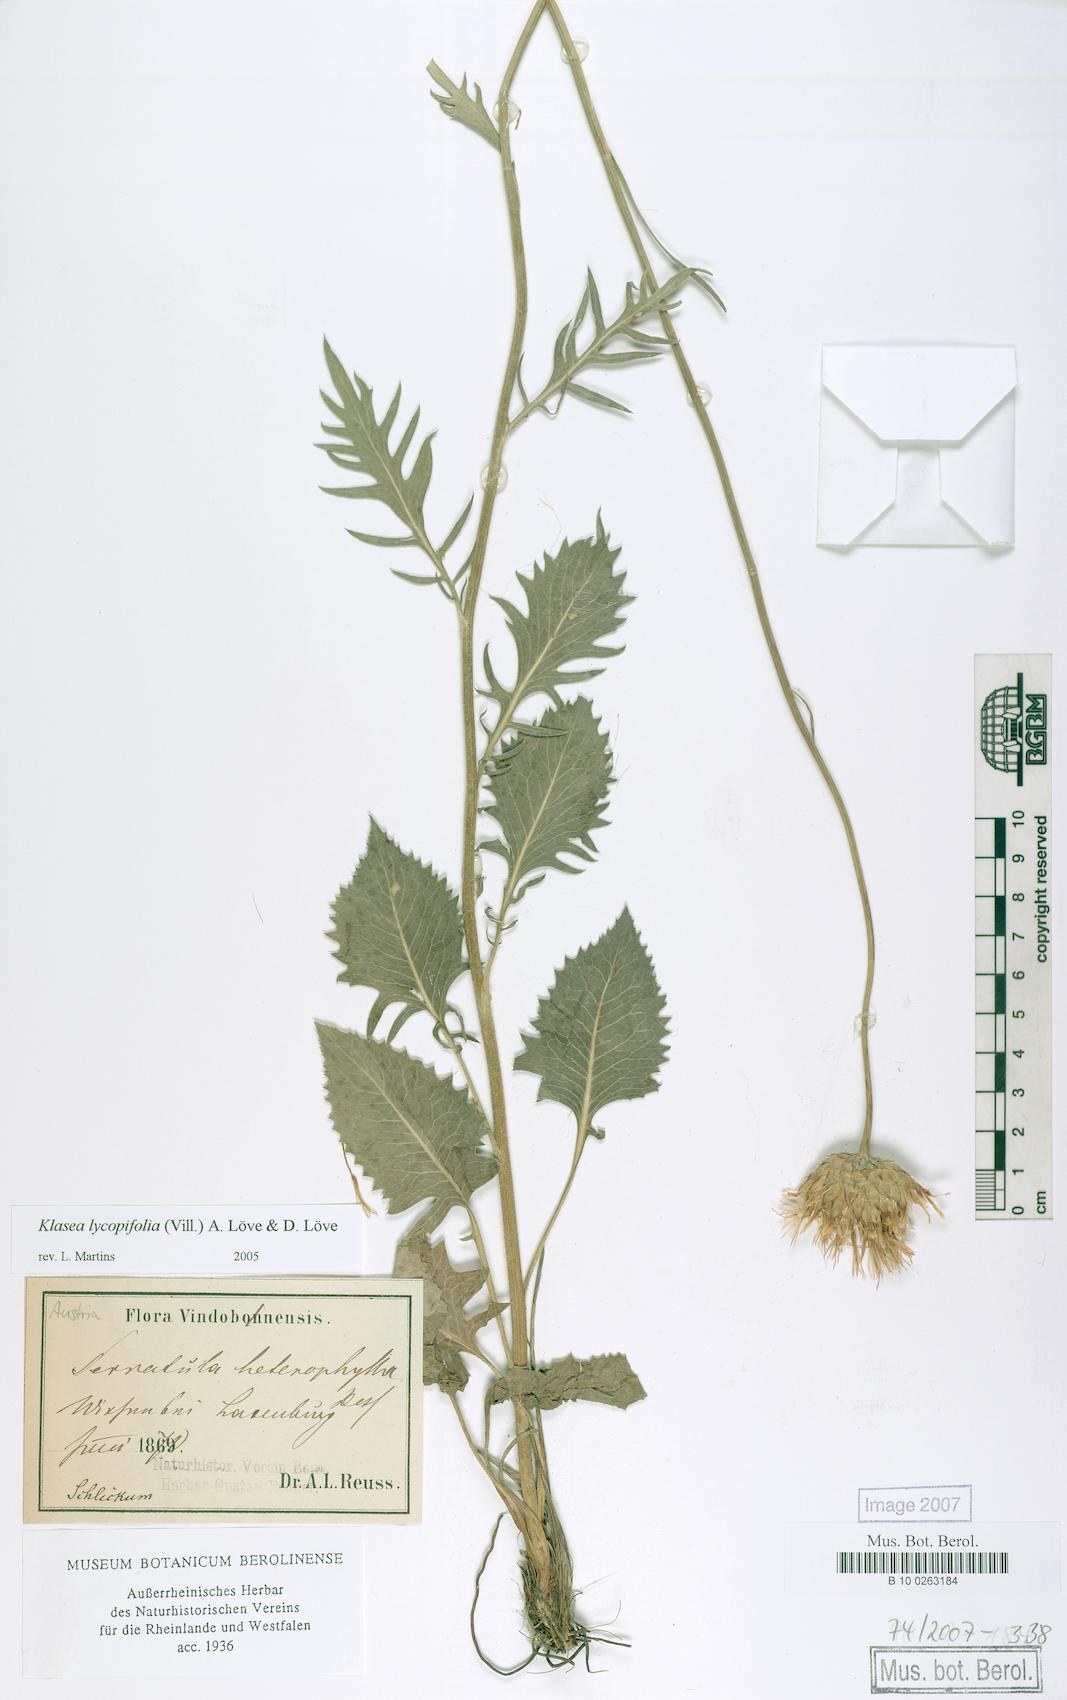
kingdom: Plantae
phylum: Tracheophyta
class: Magnoliopsida
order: Asterales
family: Asteraceae
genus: Klasea
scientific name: Klasea lycopifolia
